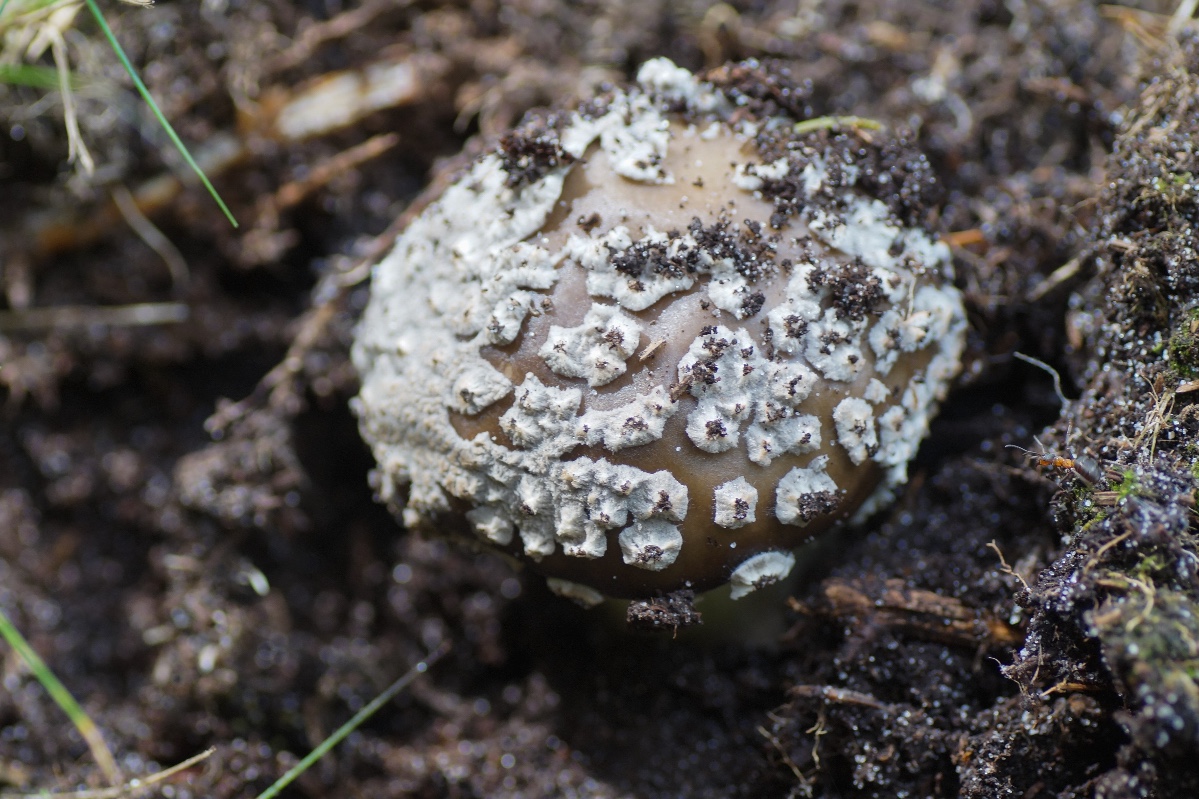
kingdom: Fungi
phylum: Basidiomycota
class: Agaricomycetes
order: Agaricales
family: Amanitaceae
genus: Amanita
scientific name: Amanita
